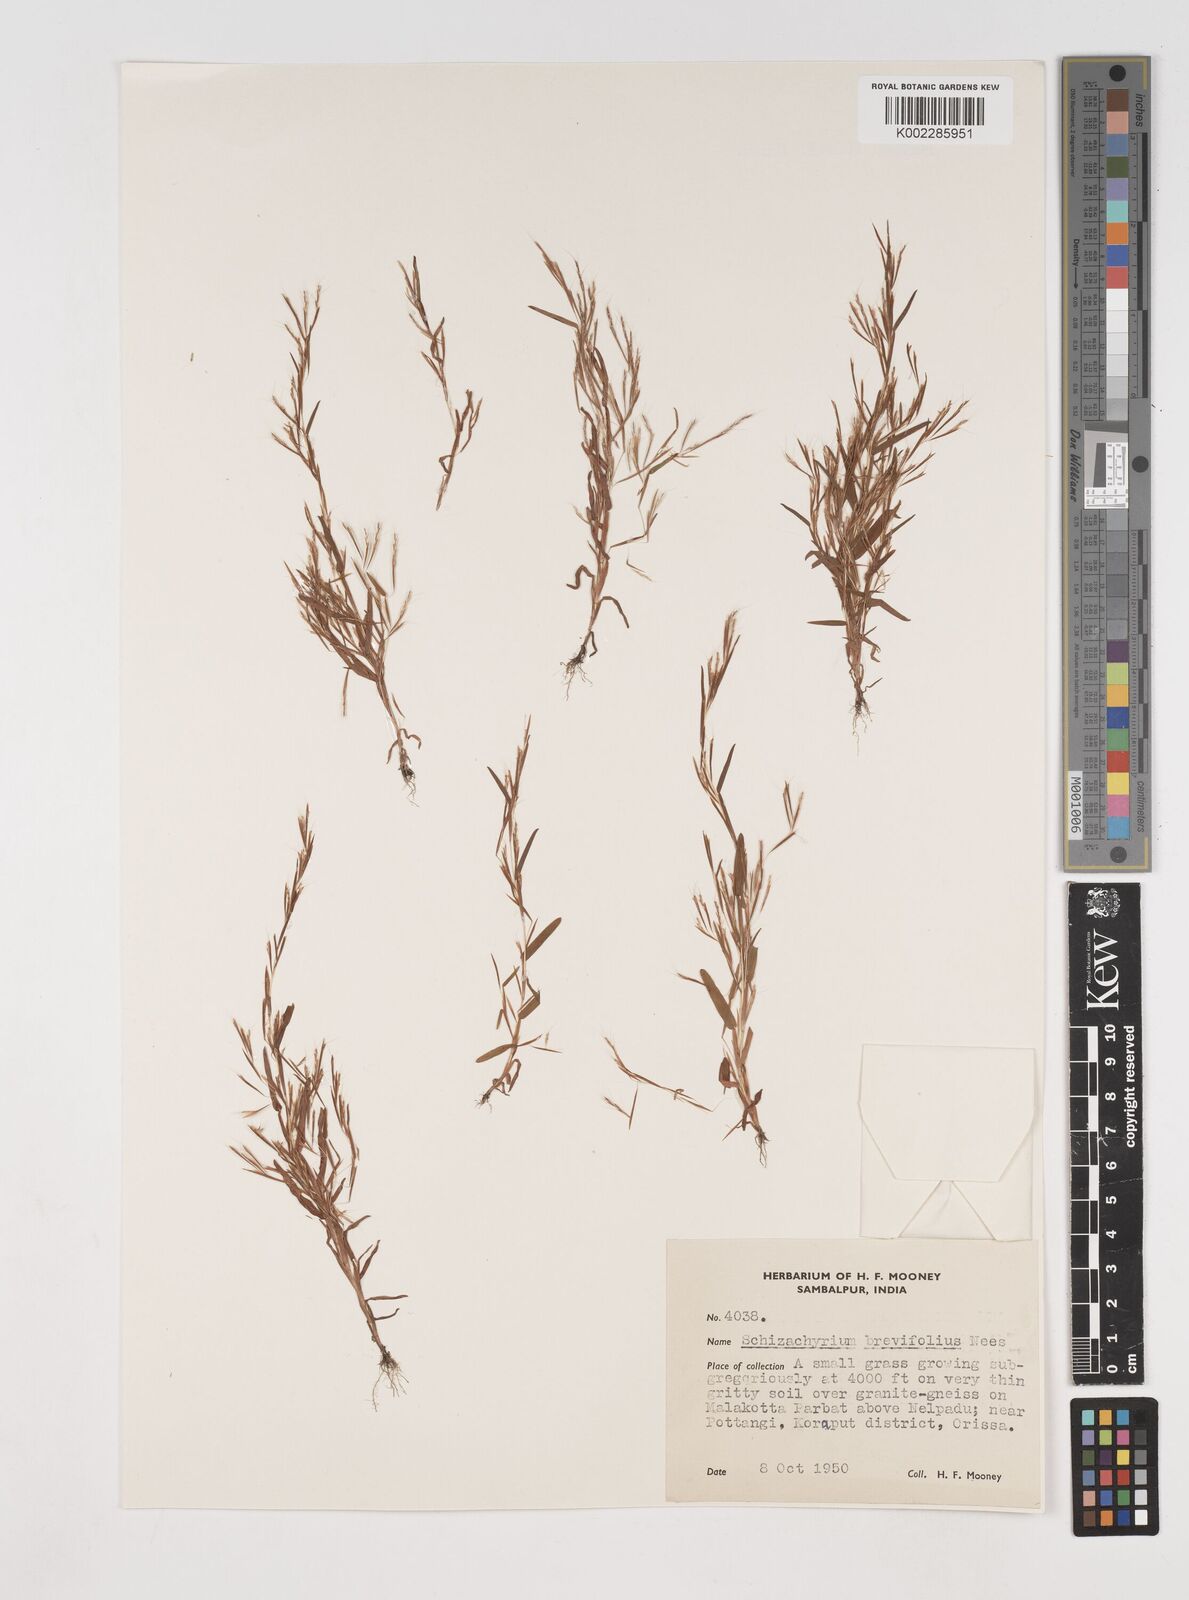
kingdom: Plantae
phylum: Tracheophyta
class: Liliopsida
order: Poales
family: Poaceae
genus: Schizachyrium
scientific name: Schizachyrium brevifolium
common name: Serillo dulce
